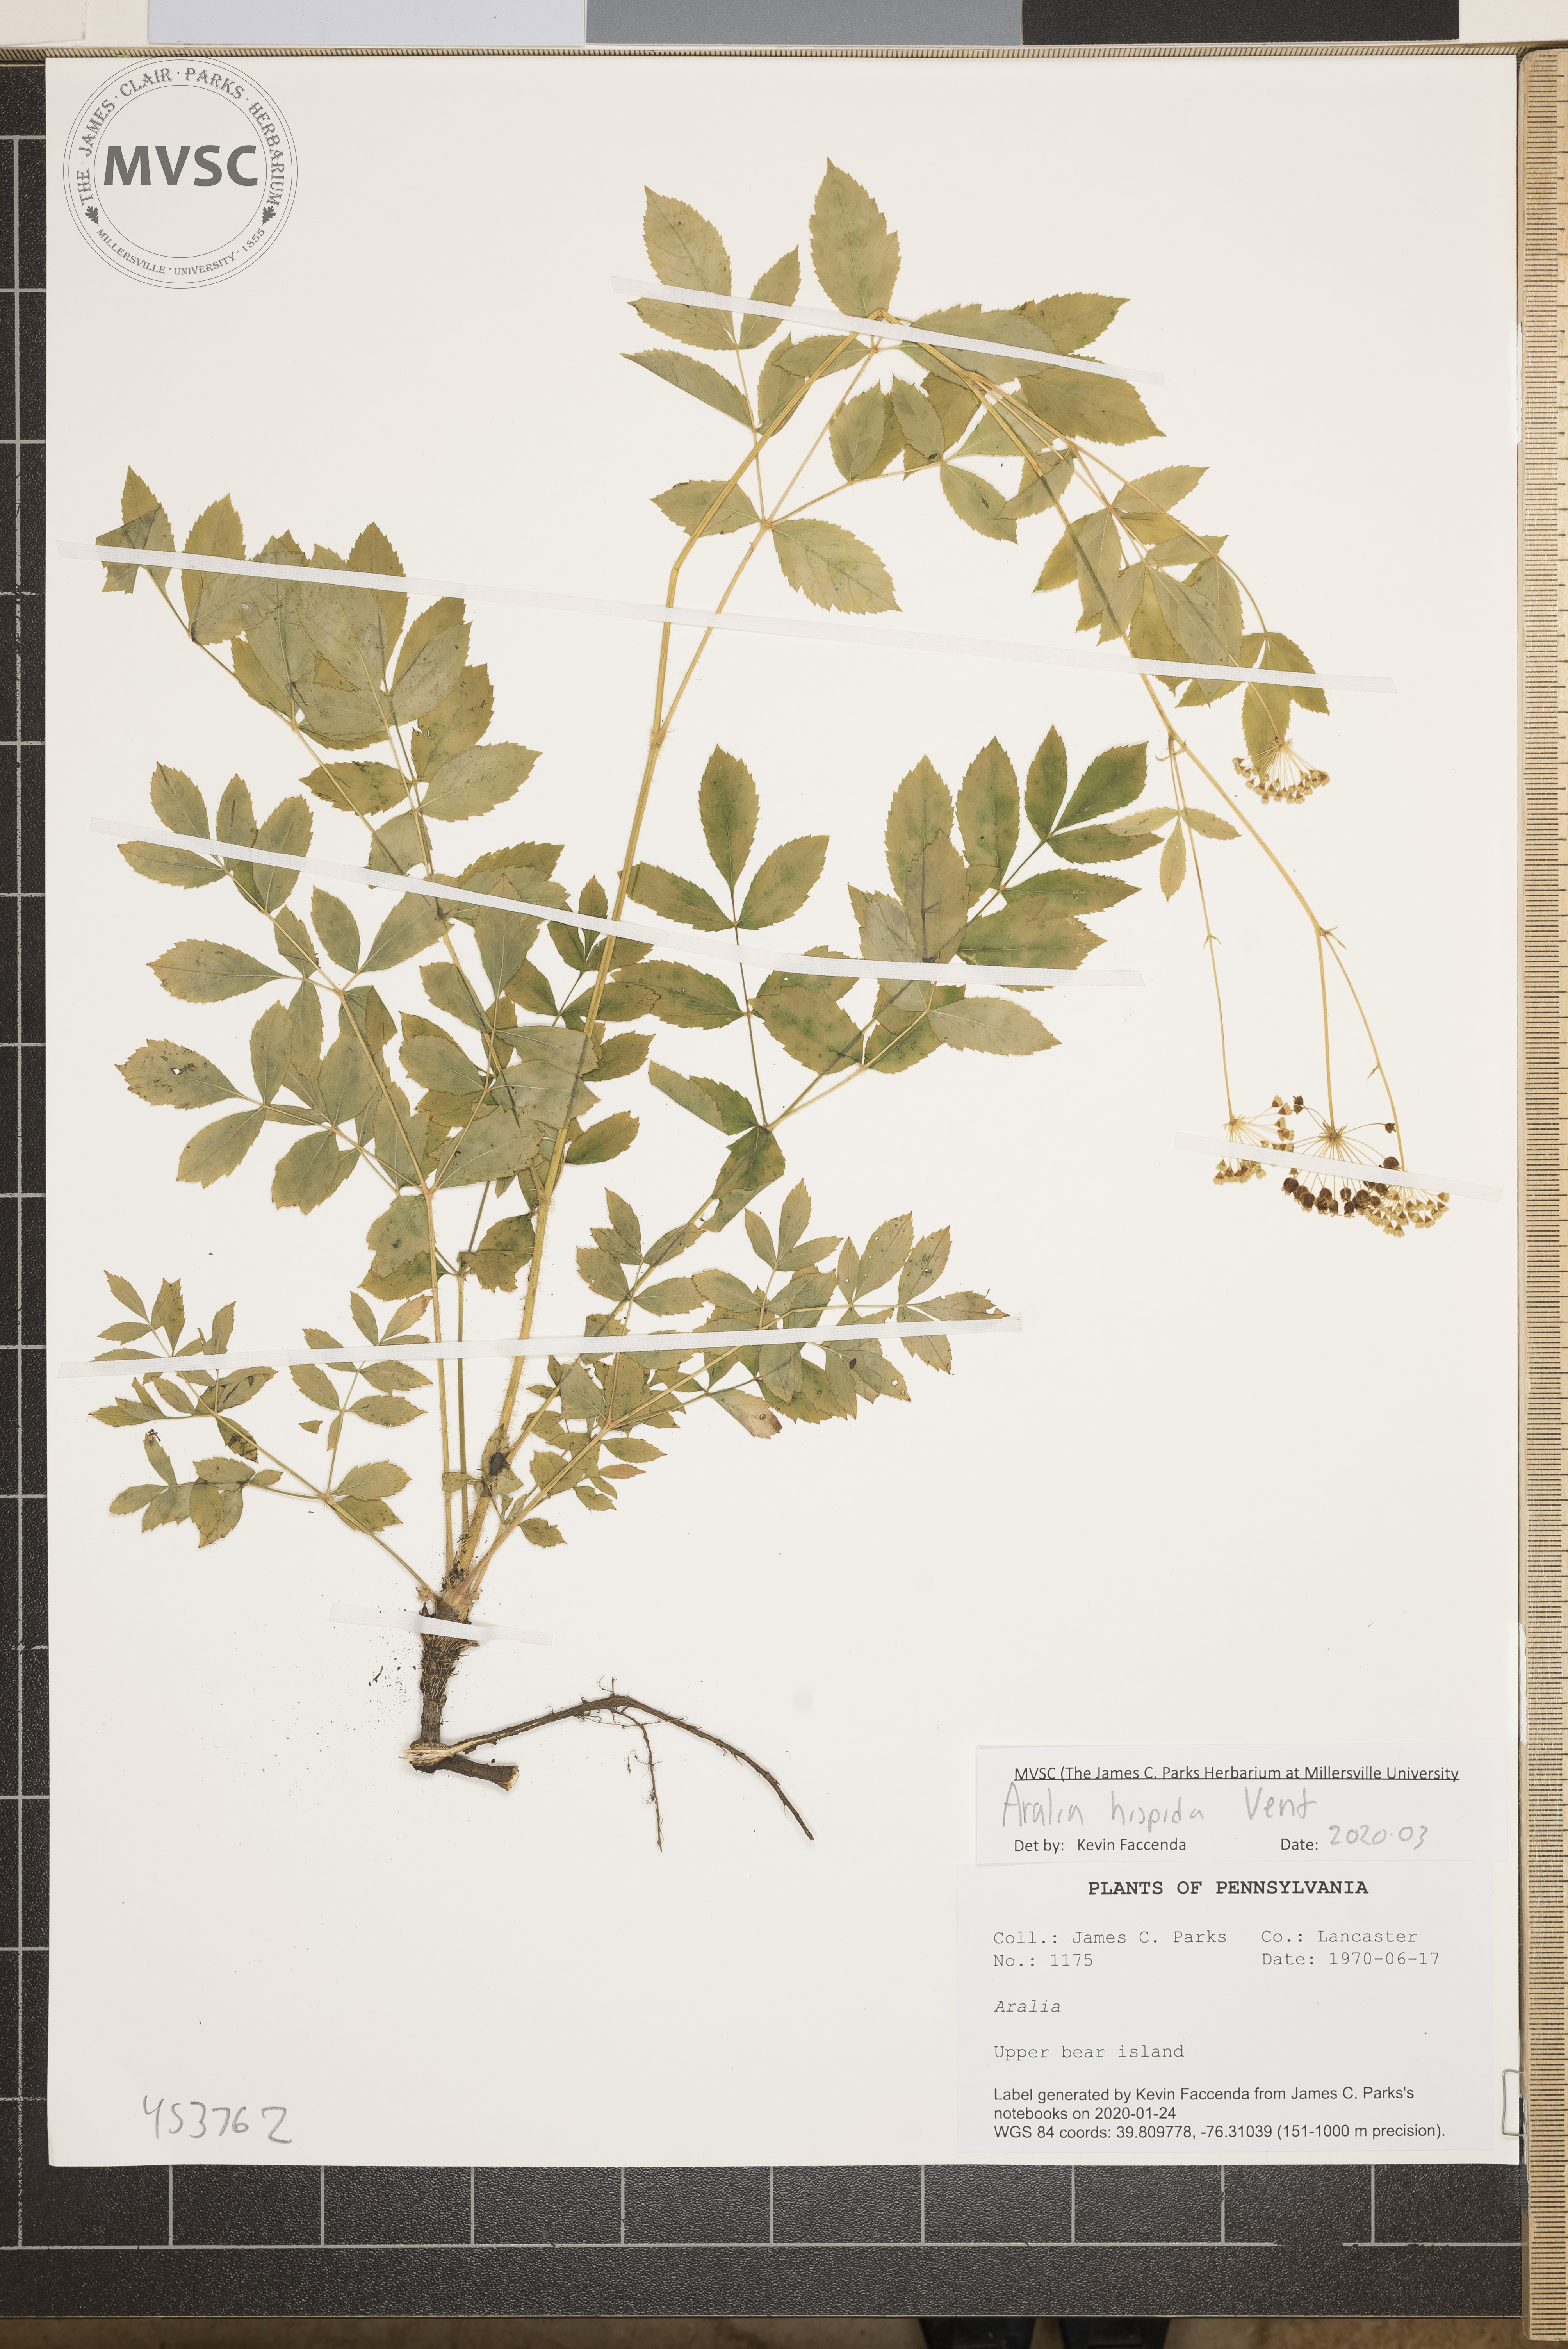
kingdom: Plantae
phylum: Tracheophyta
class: Magnoliopsida
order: Apiales
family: Araliaceae
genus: Aralia
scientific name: Aralia hispida
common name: Bristly sarsaparilla
